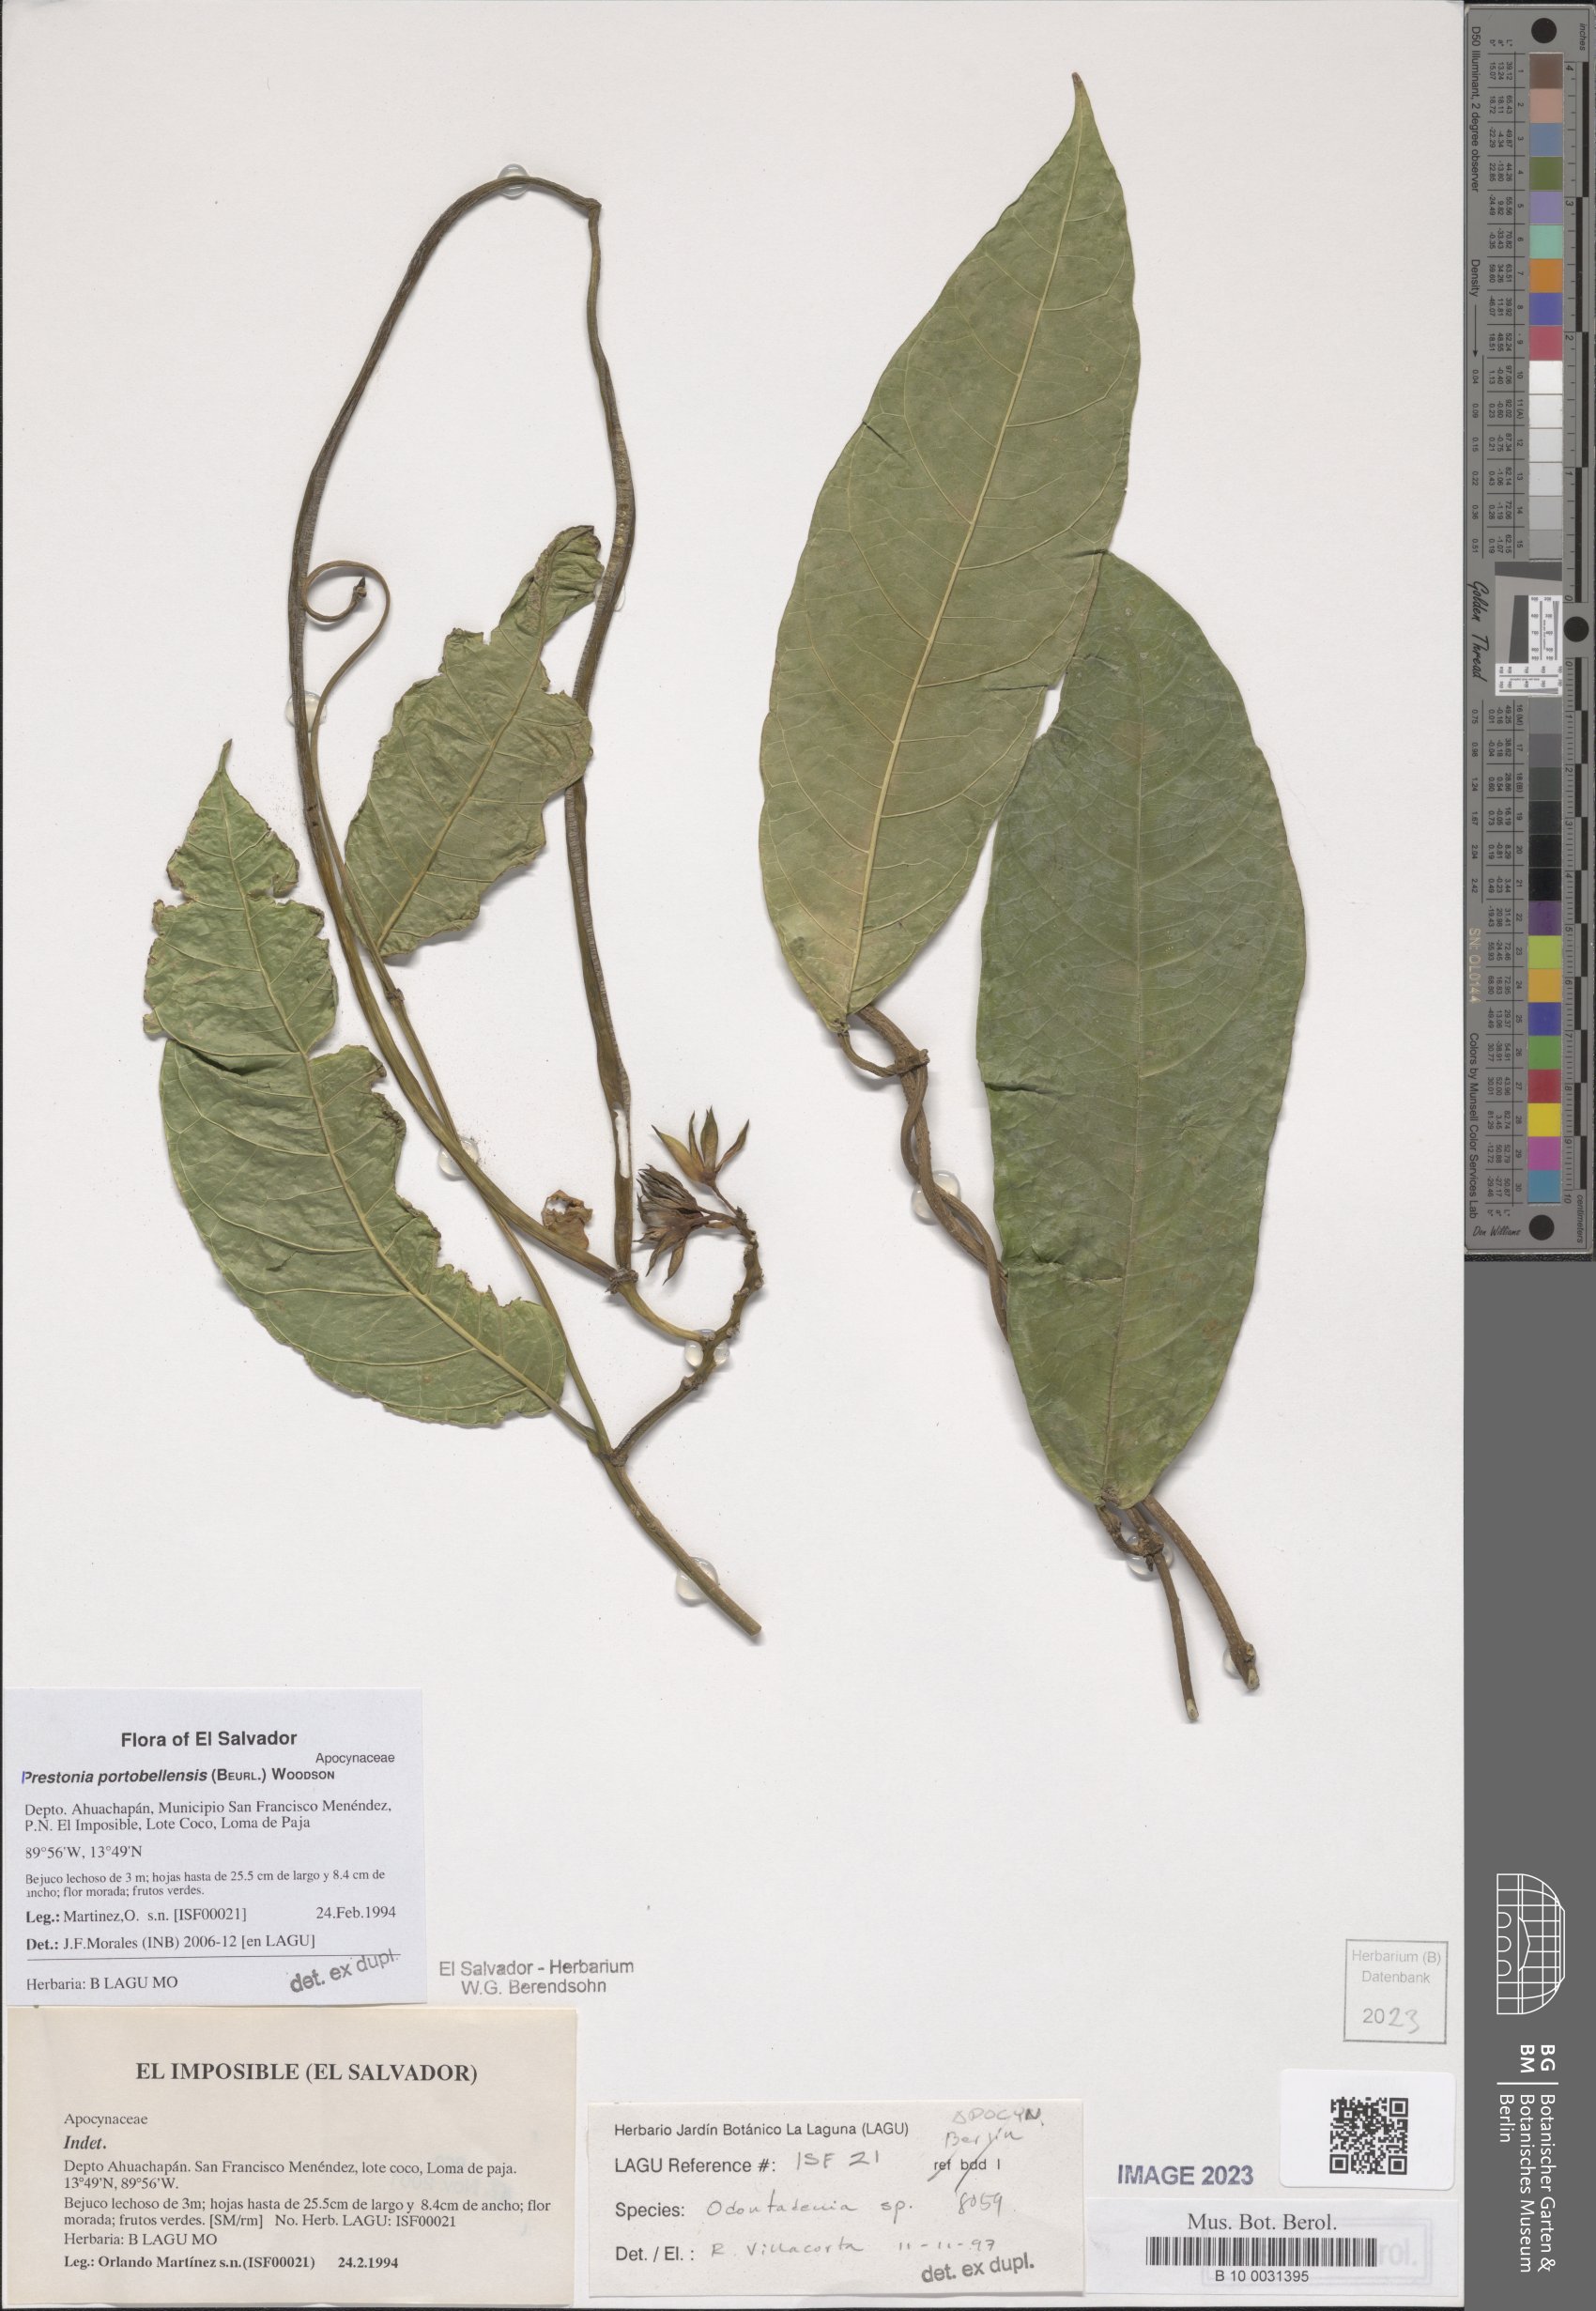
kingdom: Plantae
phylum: Tracheophyta
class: Magnoliopsida
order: Gentianales
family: Apocynaceae
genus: Prestonia
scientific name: Prestonia portobellensis
